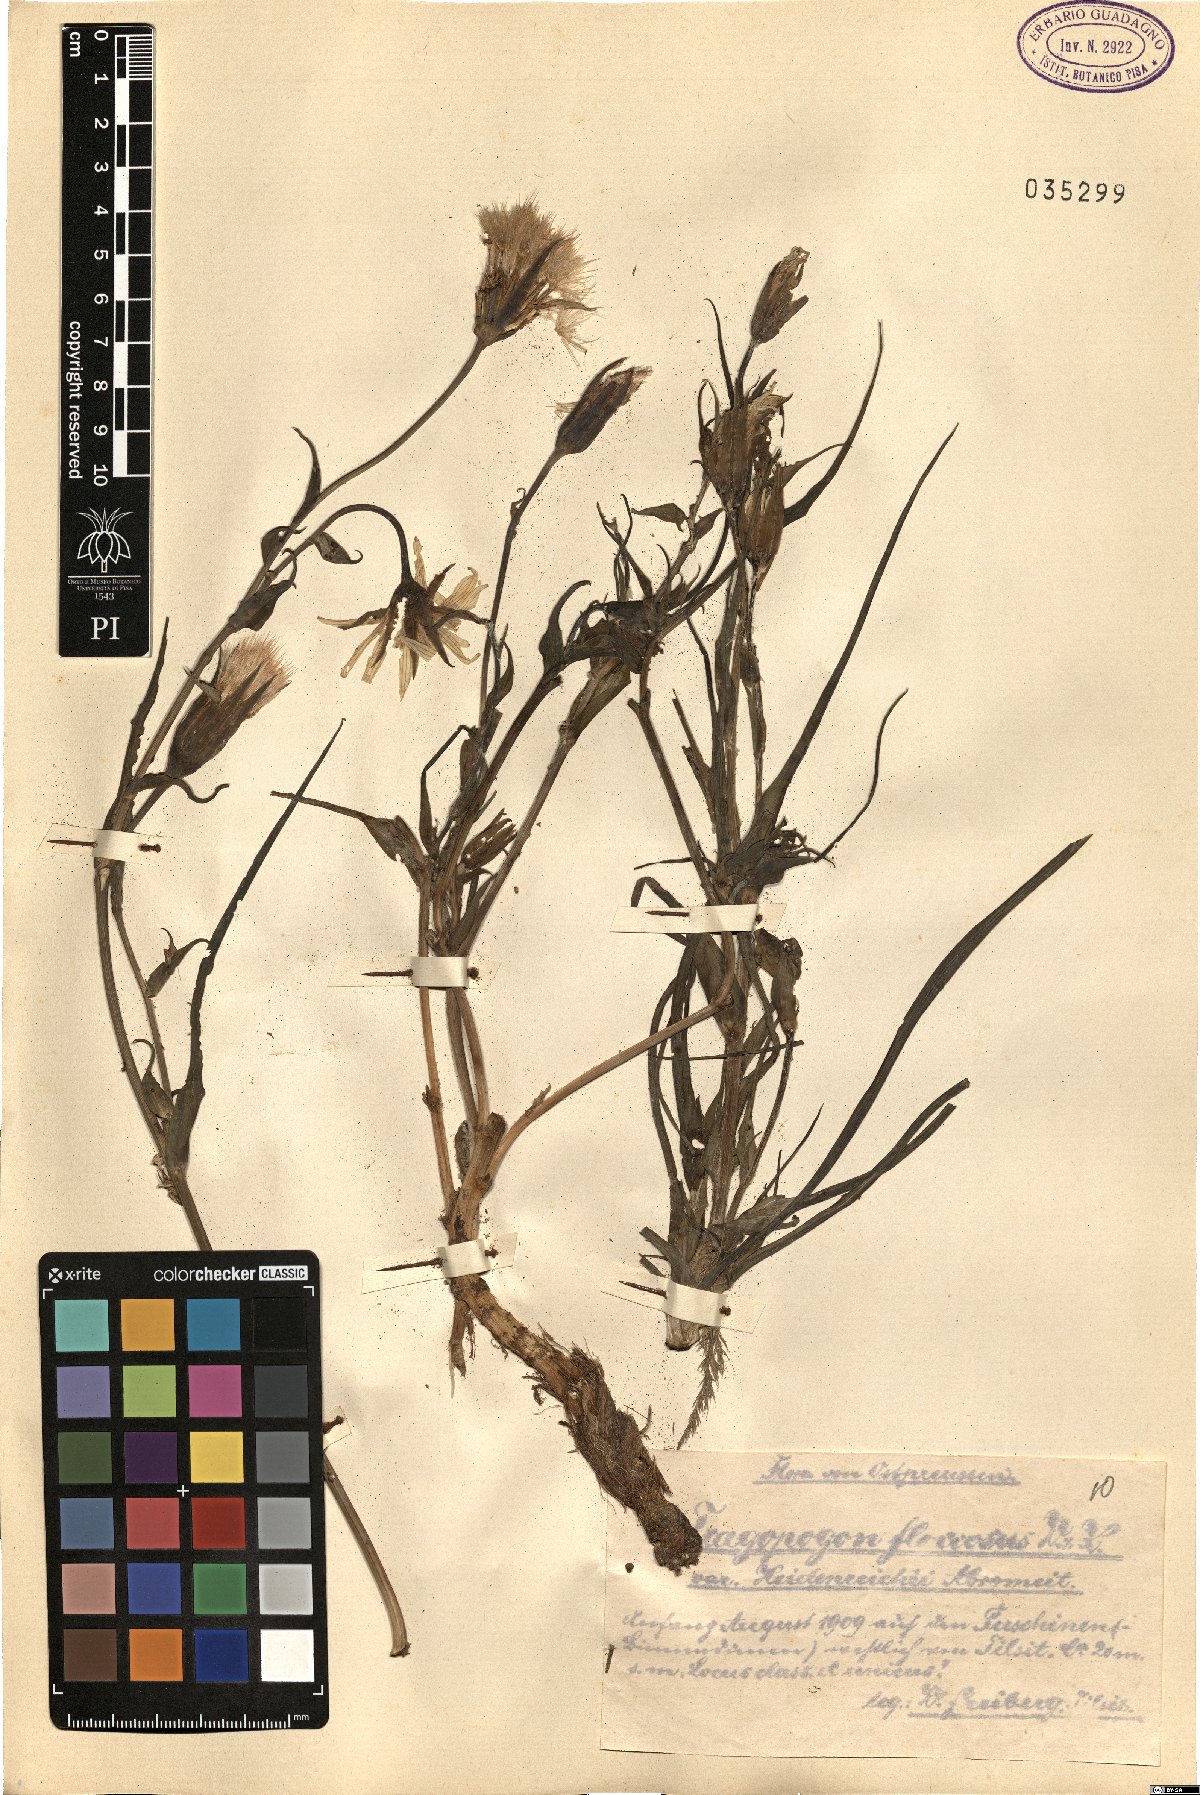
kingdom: Plantae
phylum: Tracheophyta
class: Magnoliopsida
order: Asterales
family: Asteraceae
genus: Tragopogon
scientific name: Tragopogon floccosus
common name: Woolly goatsbeard
